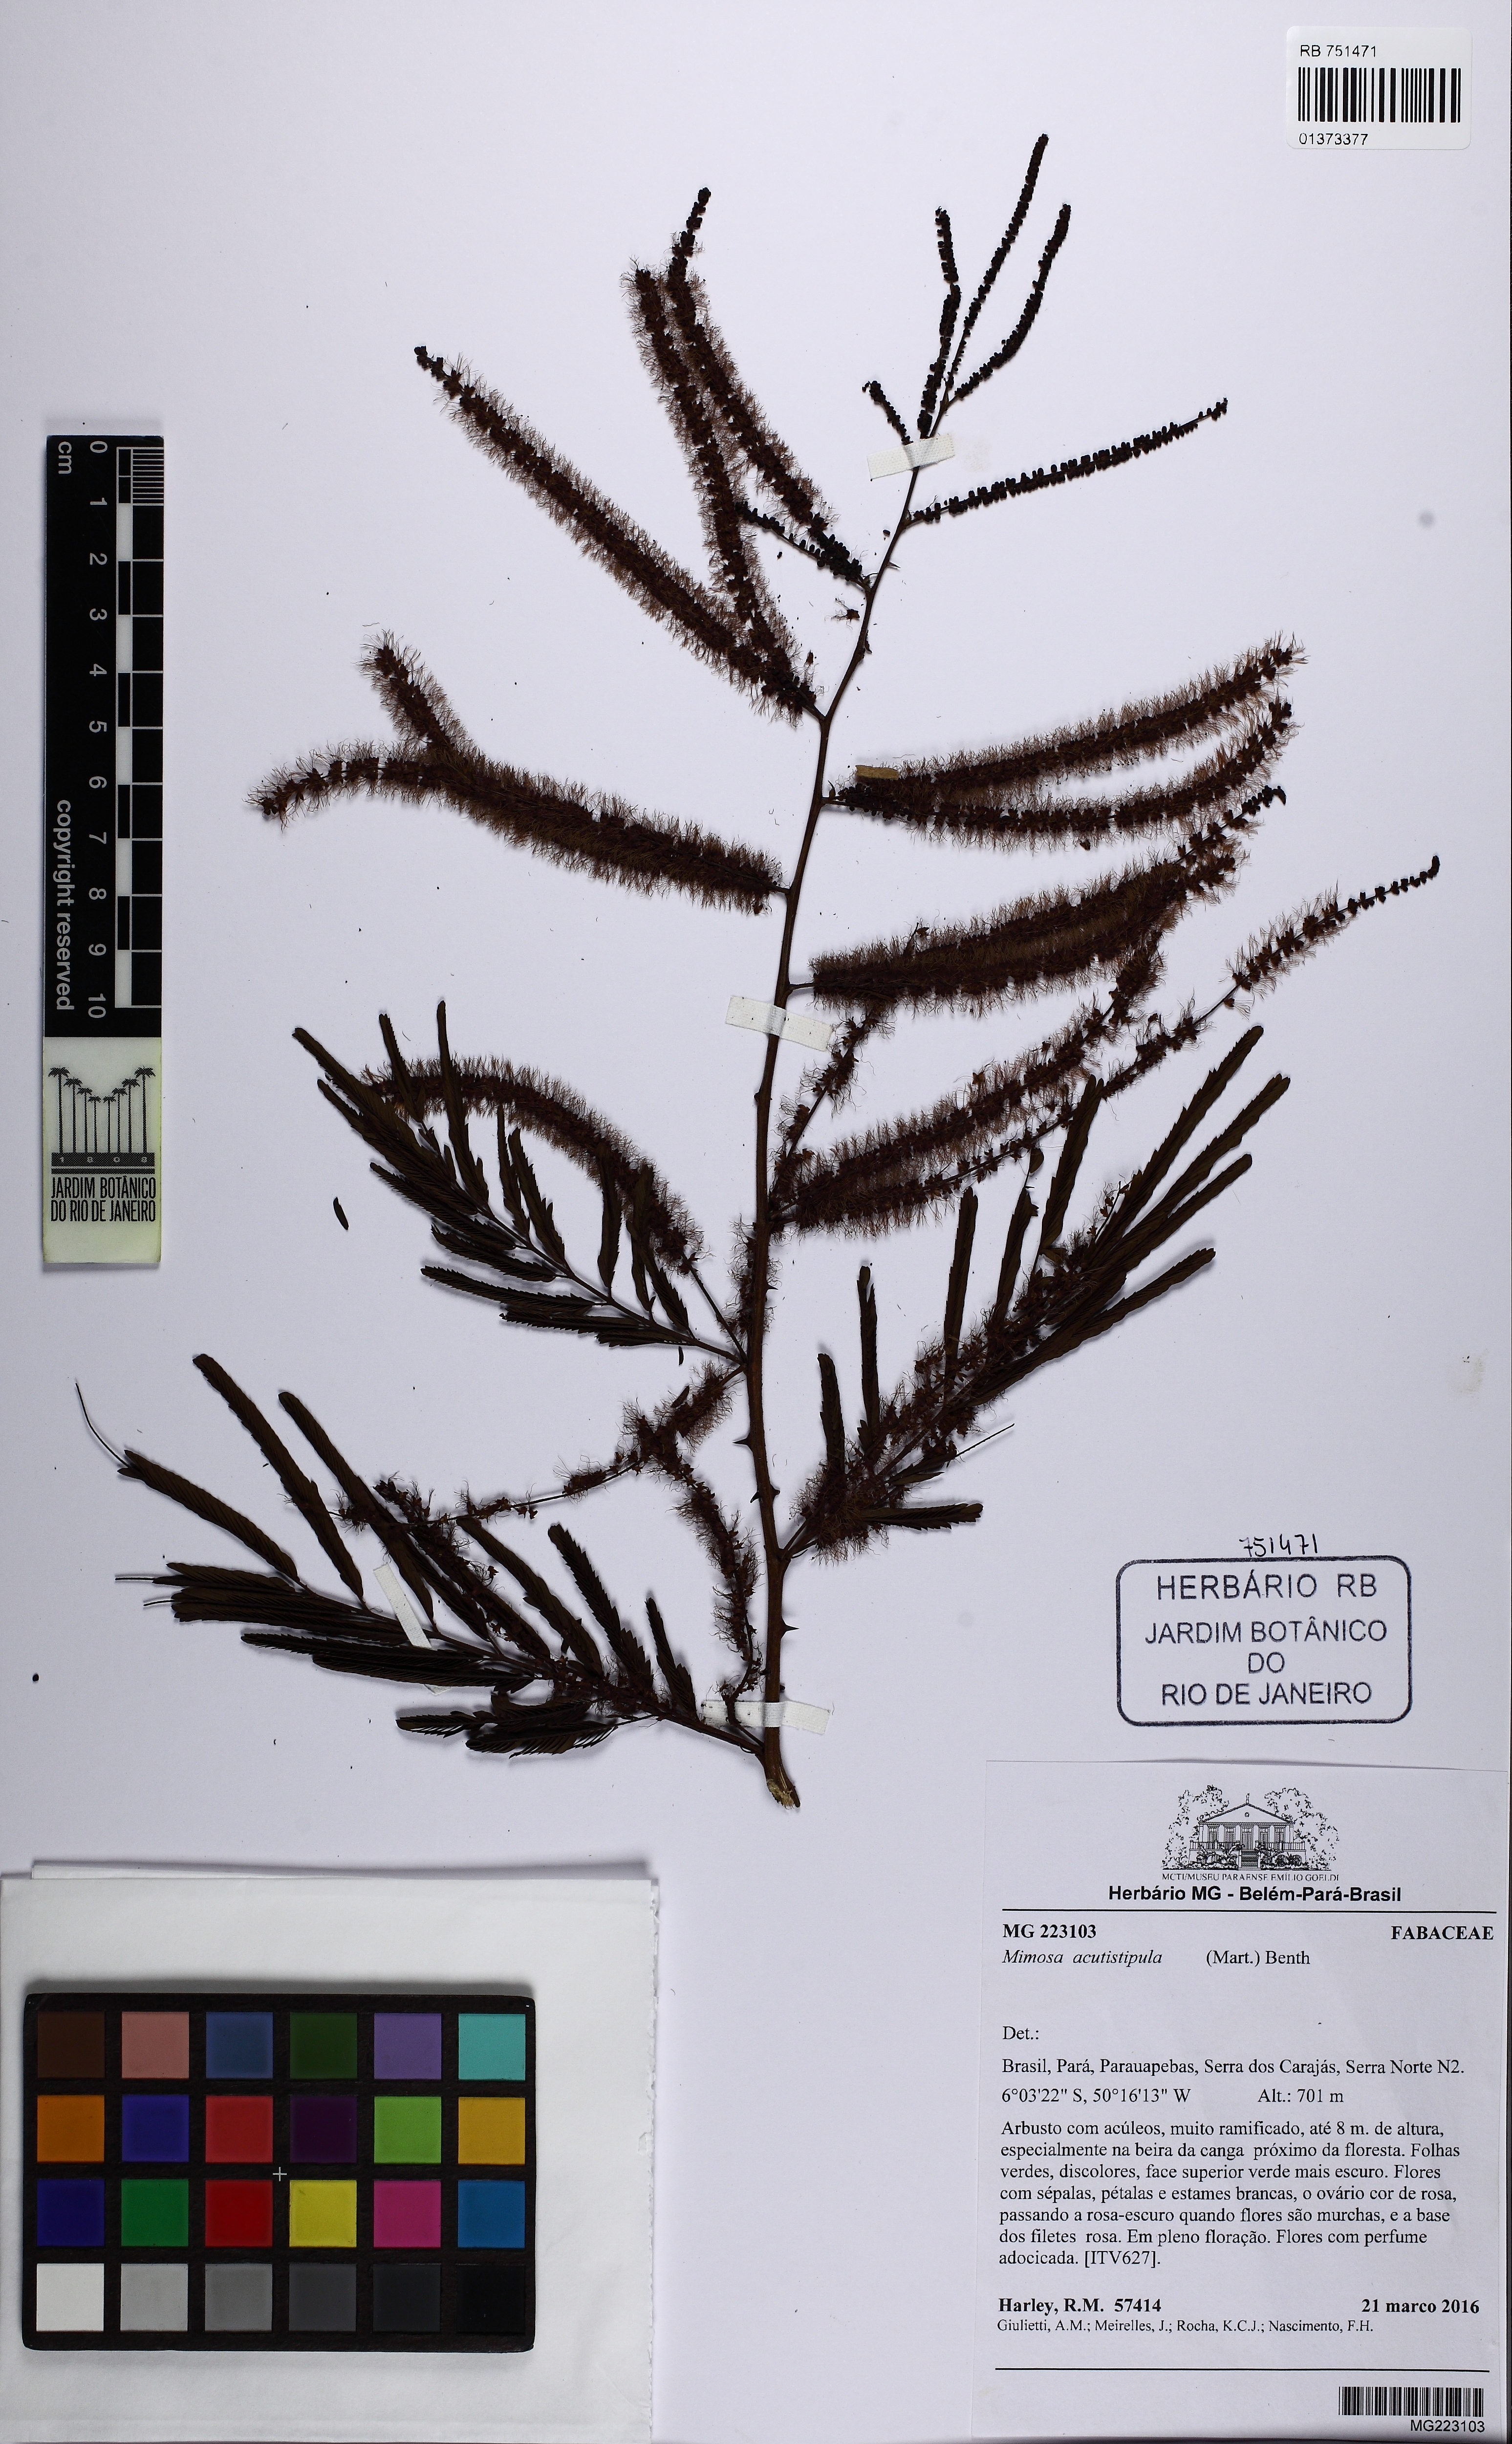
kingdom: Plantae
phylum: Tracheophyta
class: Magnoliopsida
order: Fabales
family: Fabaceae
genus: Mimosa
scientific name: Mimosa acutistipula
